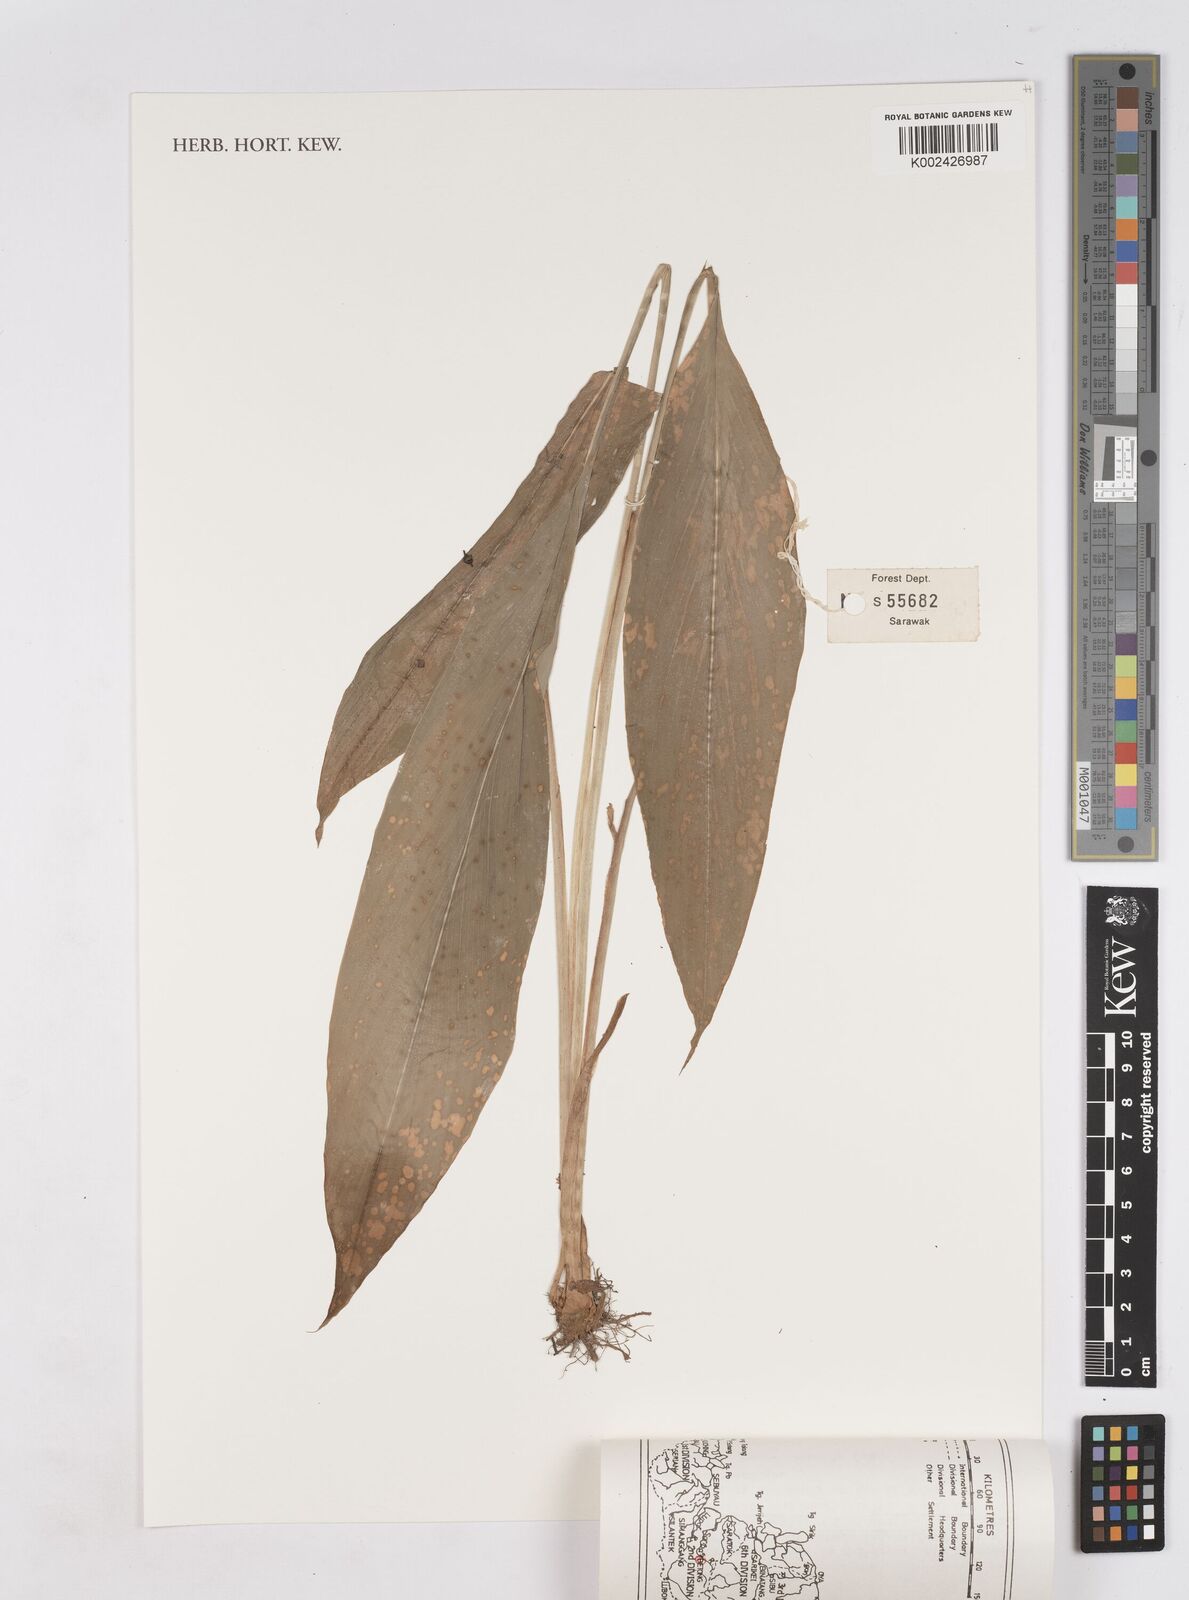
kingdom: Plantae
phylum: Tracheophyta
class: Liliopsida
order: Zingiberales
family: Zingiberaceae
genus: Hedychium
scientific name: Hedychium coronarium
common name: White garland-lily
